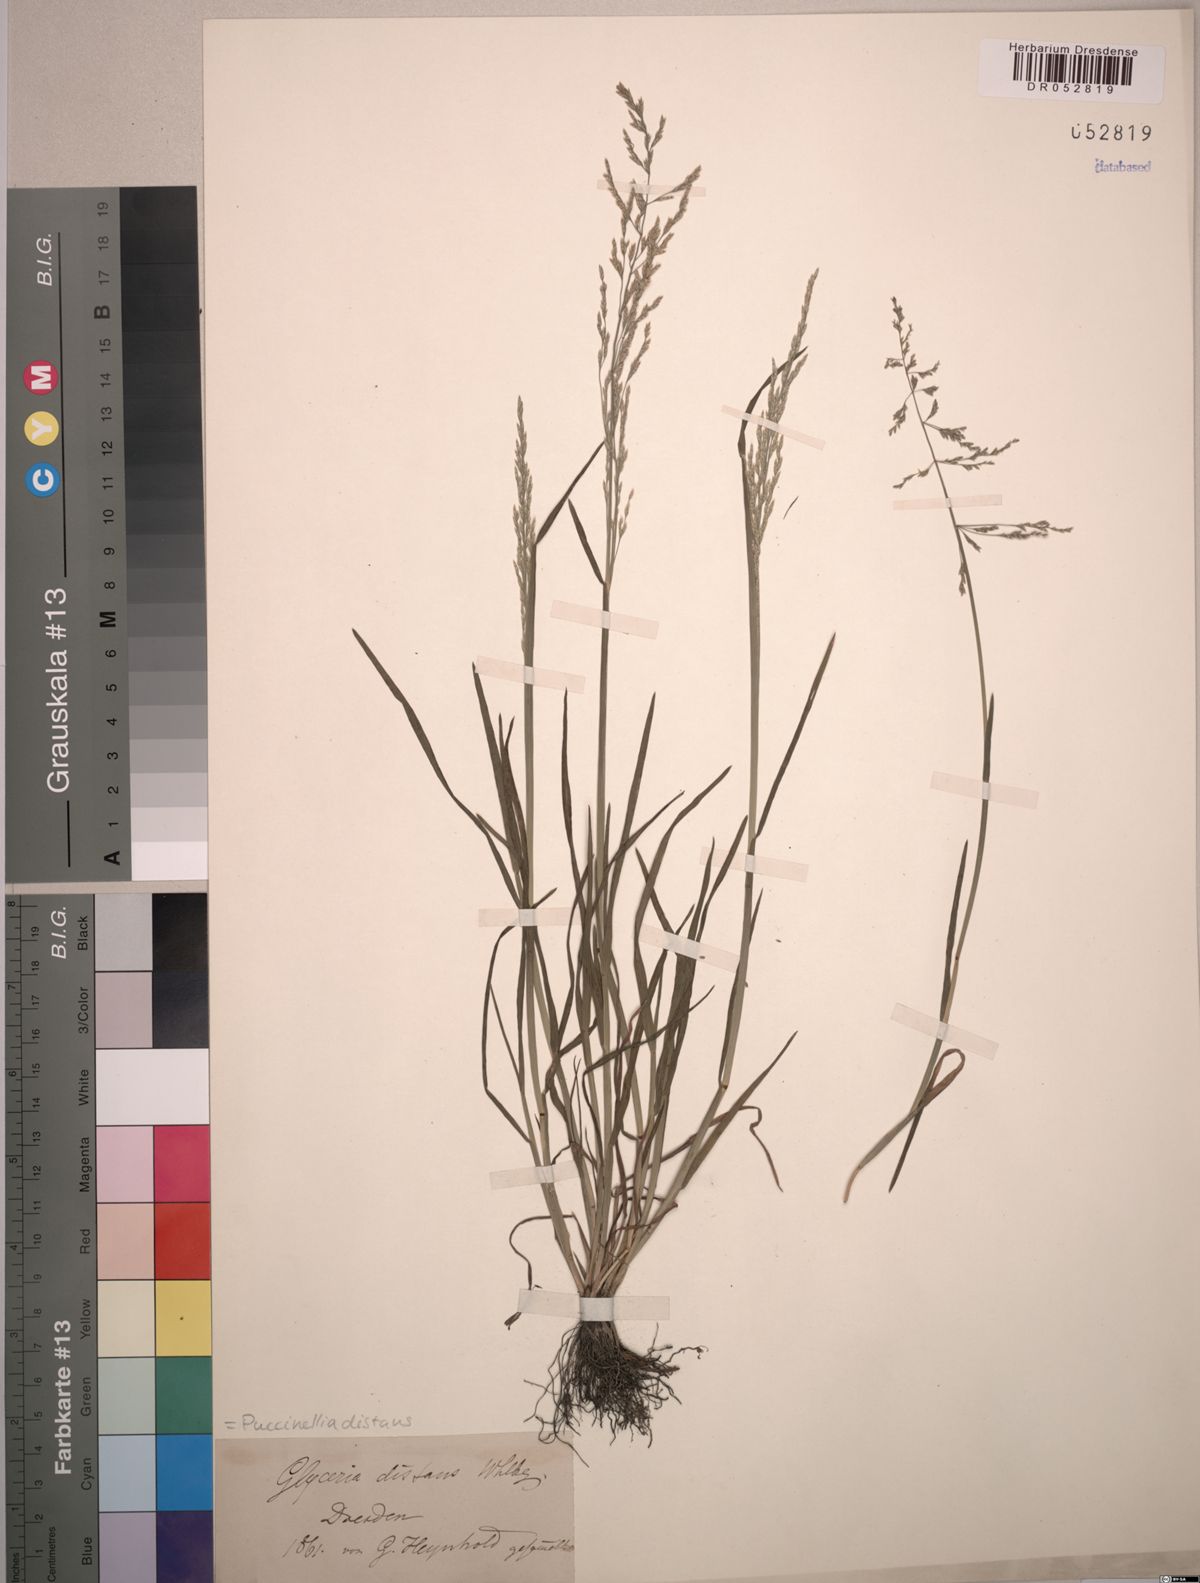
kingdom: Plantae
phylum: Tracheophyta
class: Liliopsida
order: Poales
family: Poaceae
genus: Puccinellia
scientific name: Puccinellia distans
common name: Weeping alkaligrass
